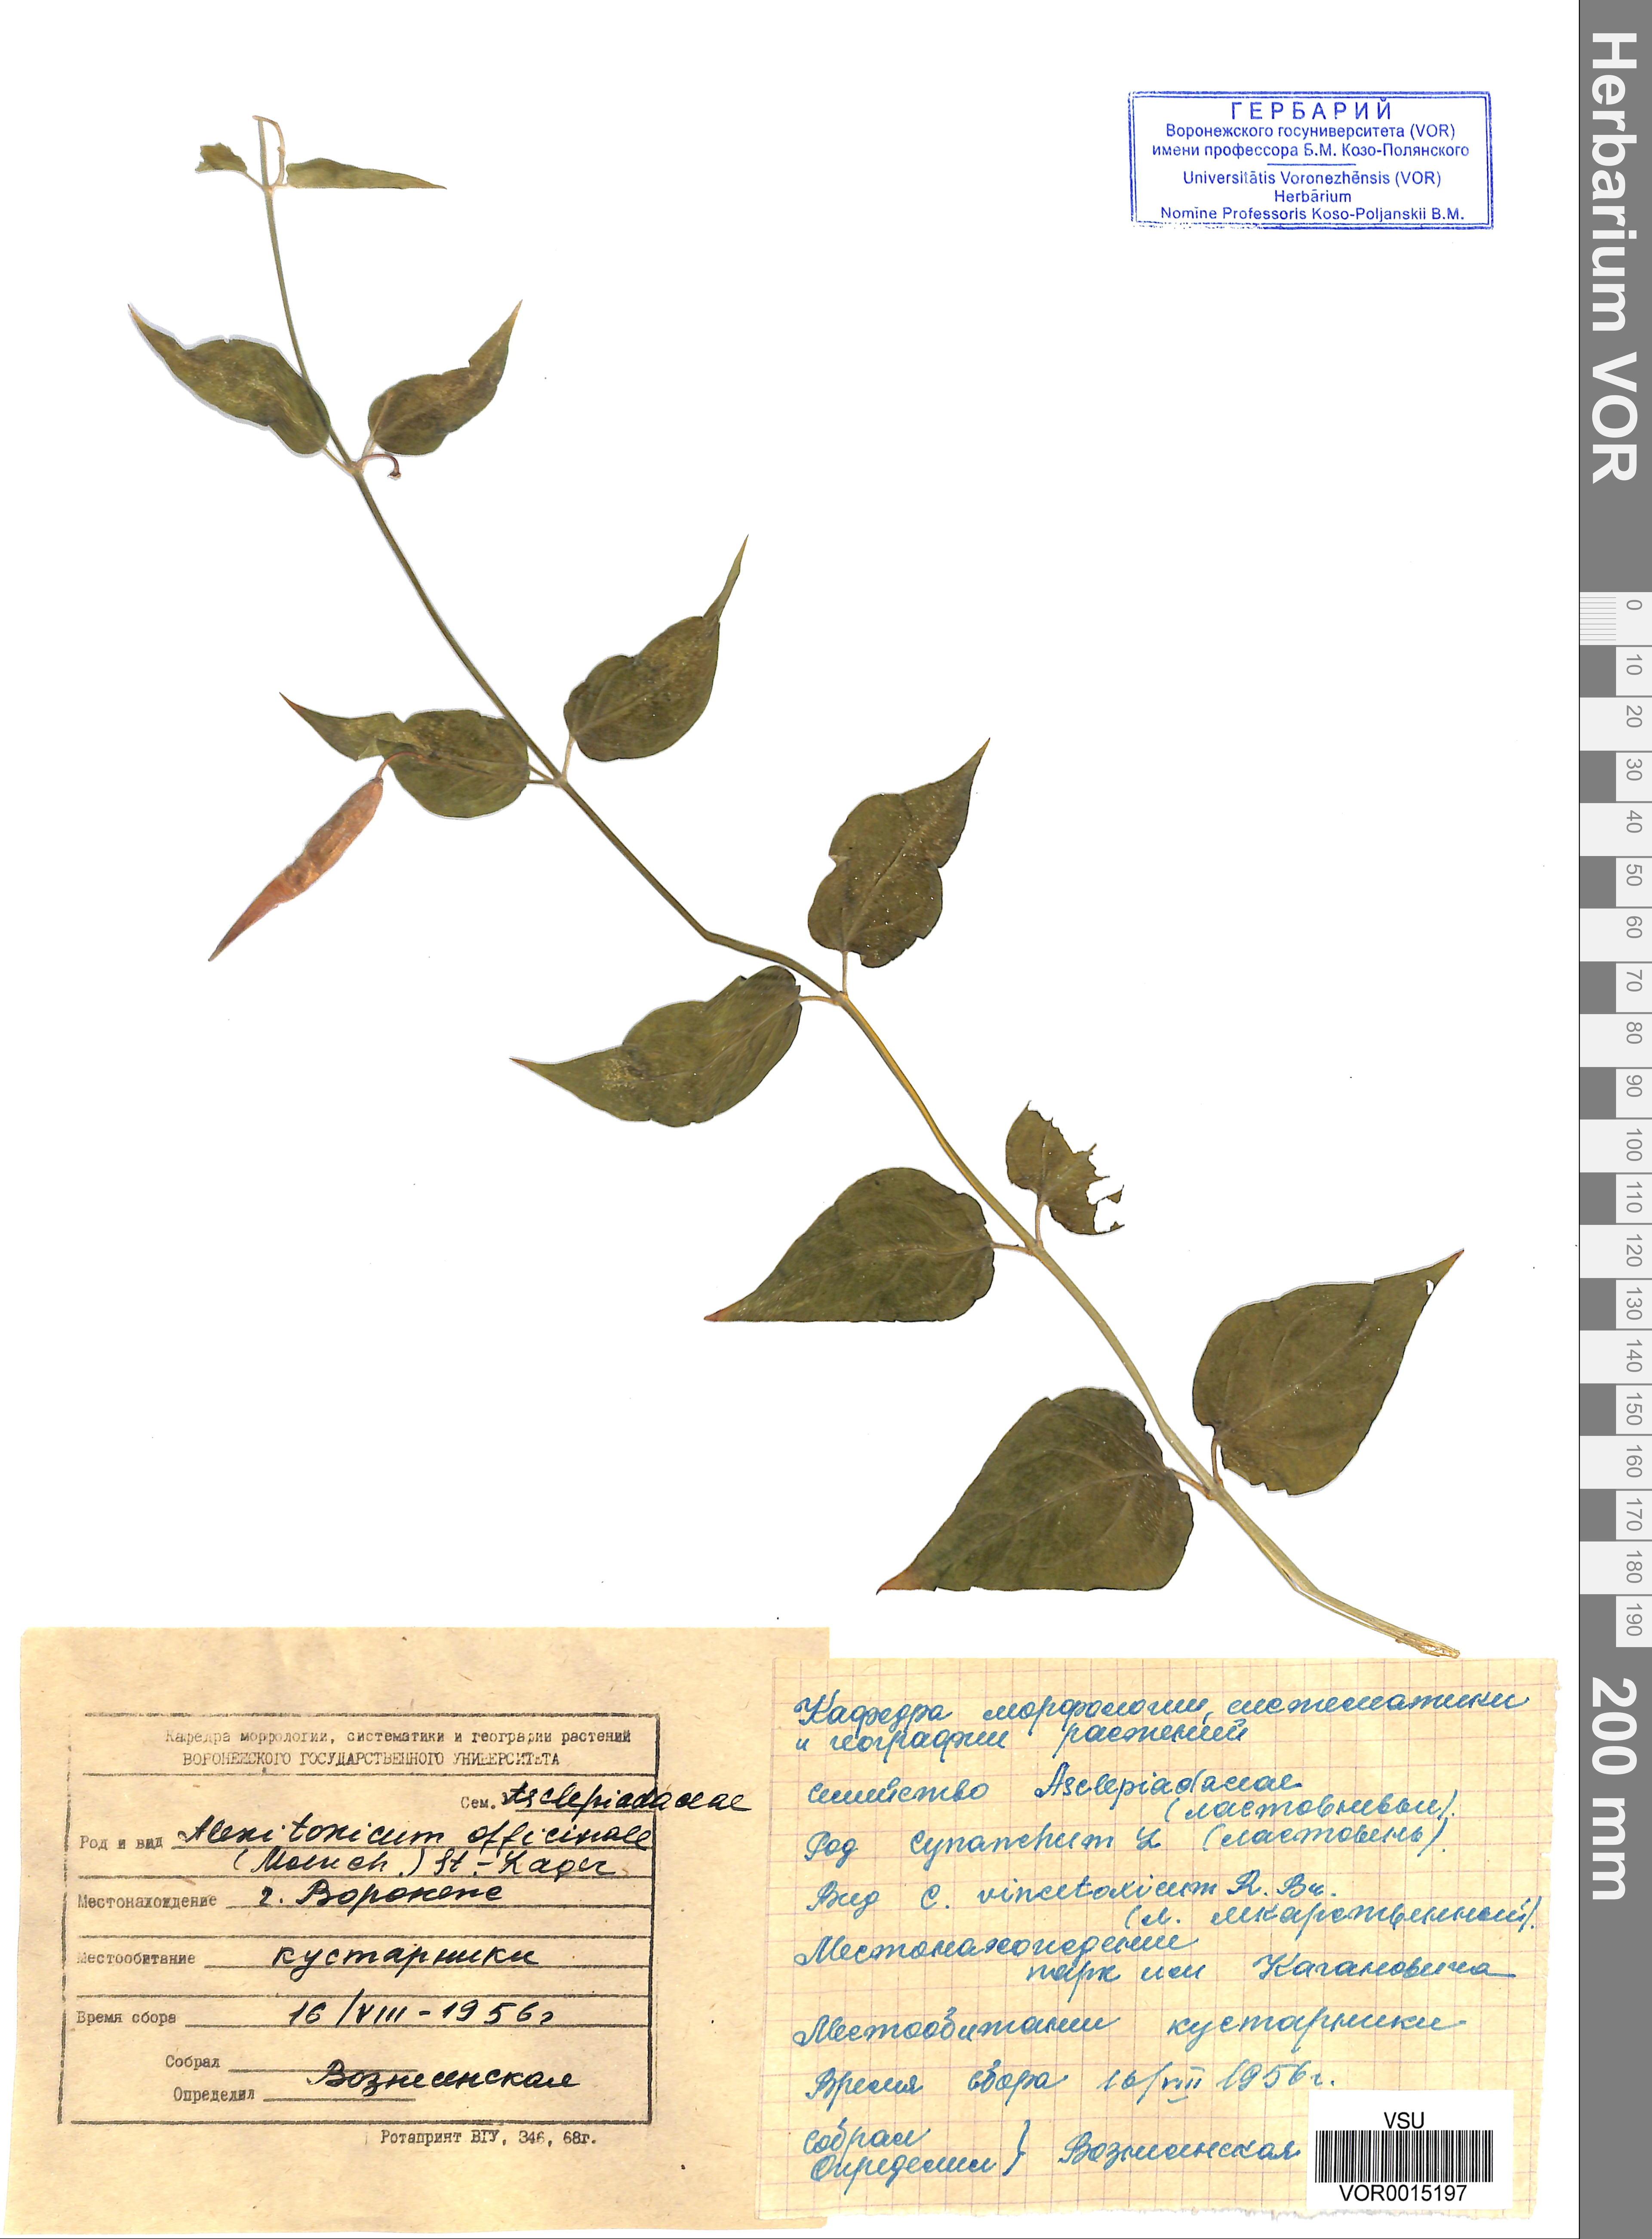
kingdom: Plantae
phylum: Tracheophyta
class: Magnoliopsida
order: Gentianales
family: Apocynaceae
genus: Vincetoxicum
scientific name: Vincetoxicum hirundinaria
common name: White swallowwort
